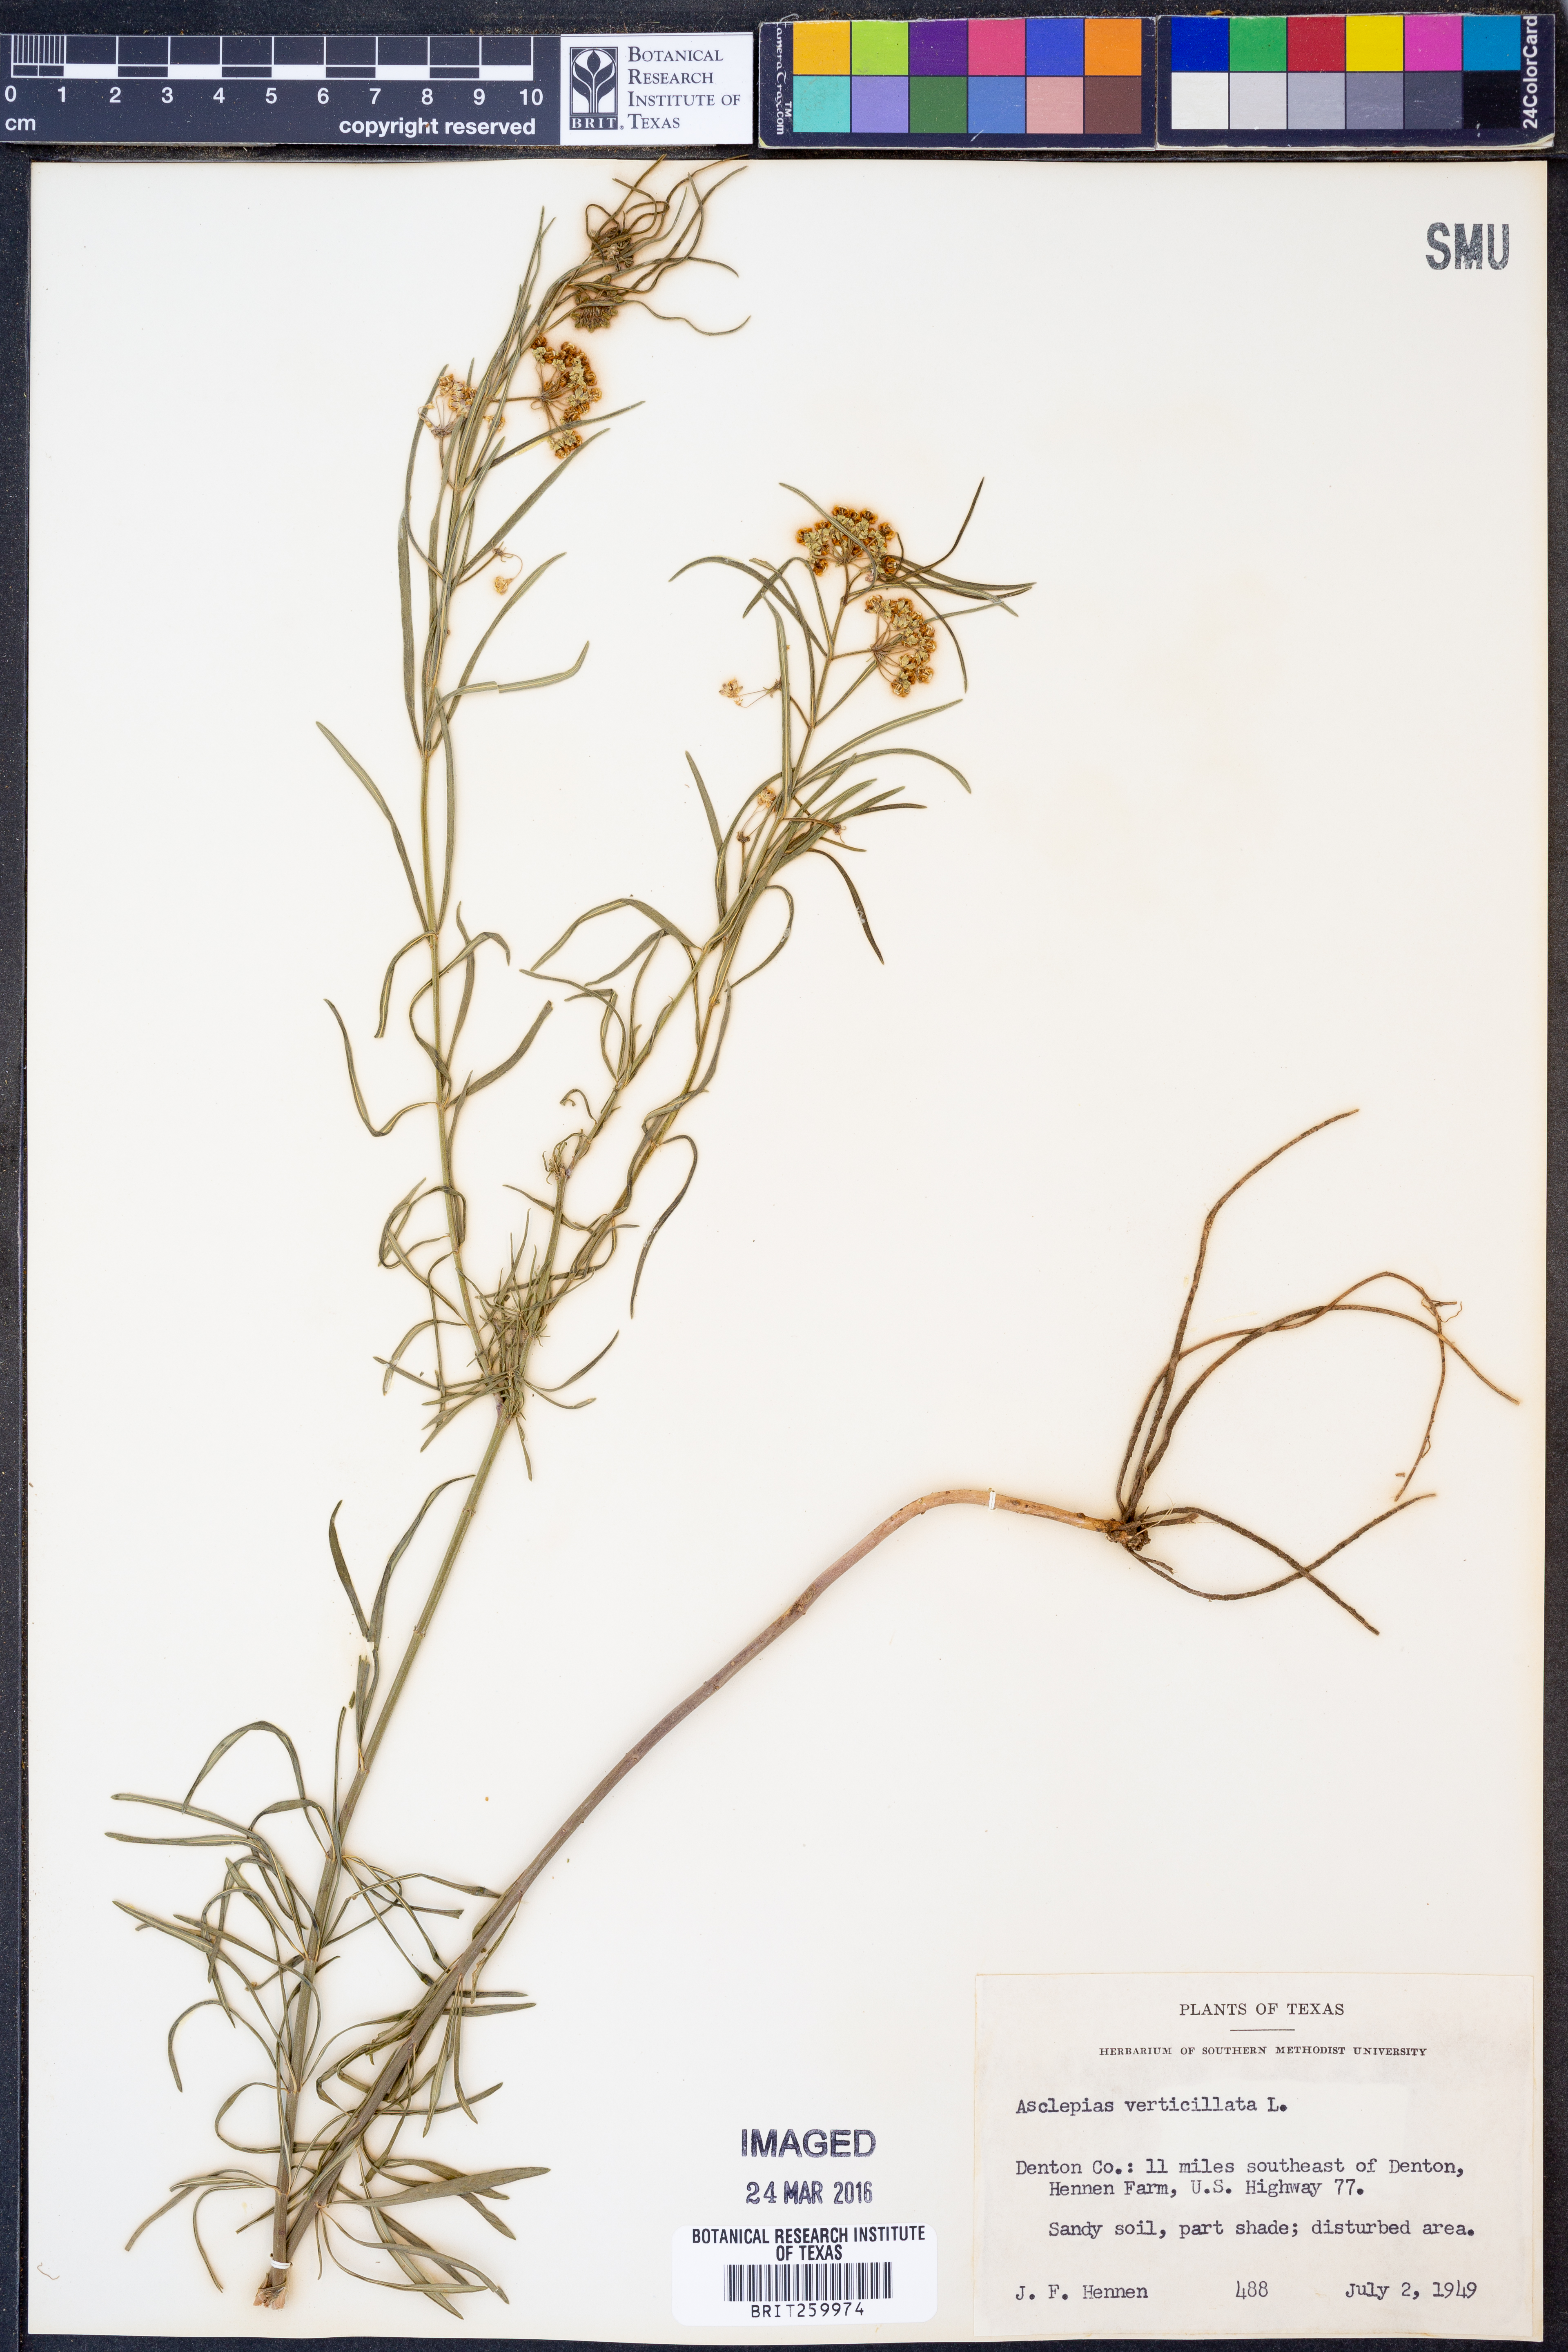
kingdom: Plantae
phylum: Tracheophyta
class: Magnoliopsida
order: Gentianales
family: Apocynaceae
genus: Asclepias
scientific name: Asclepias verticillata
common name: Eastern whorled milkweed
